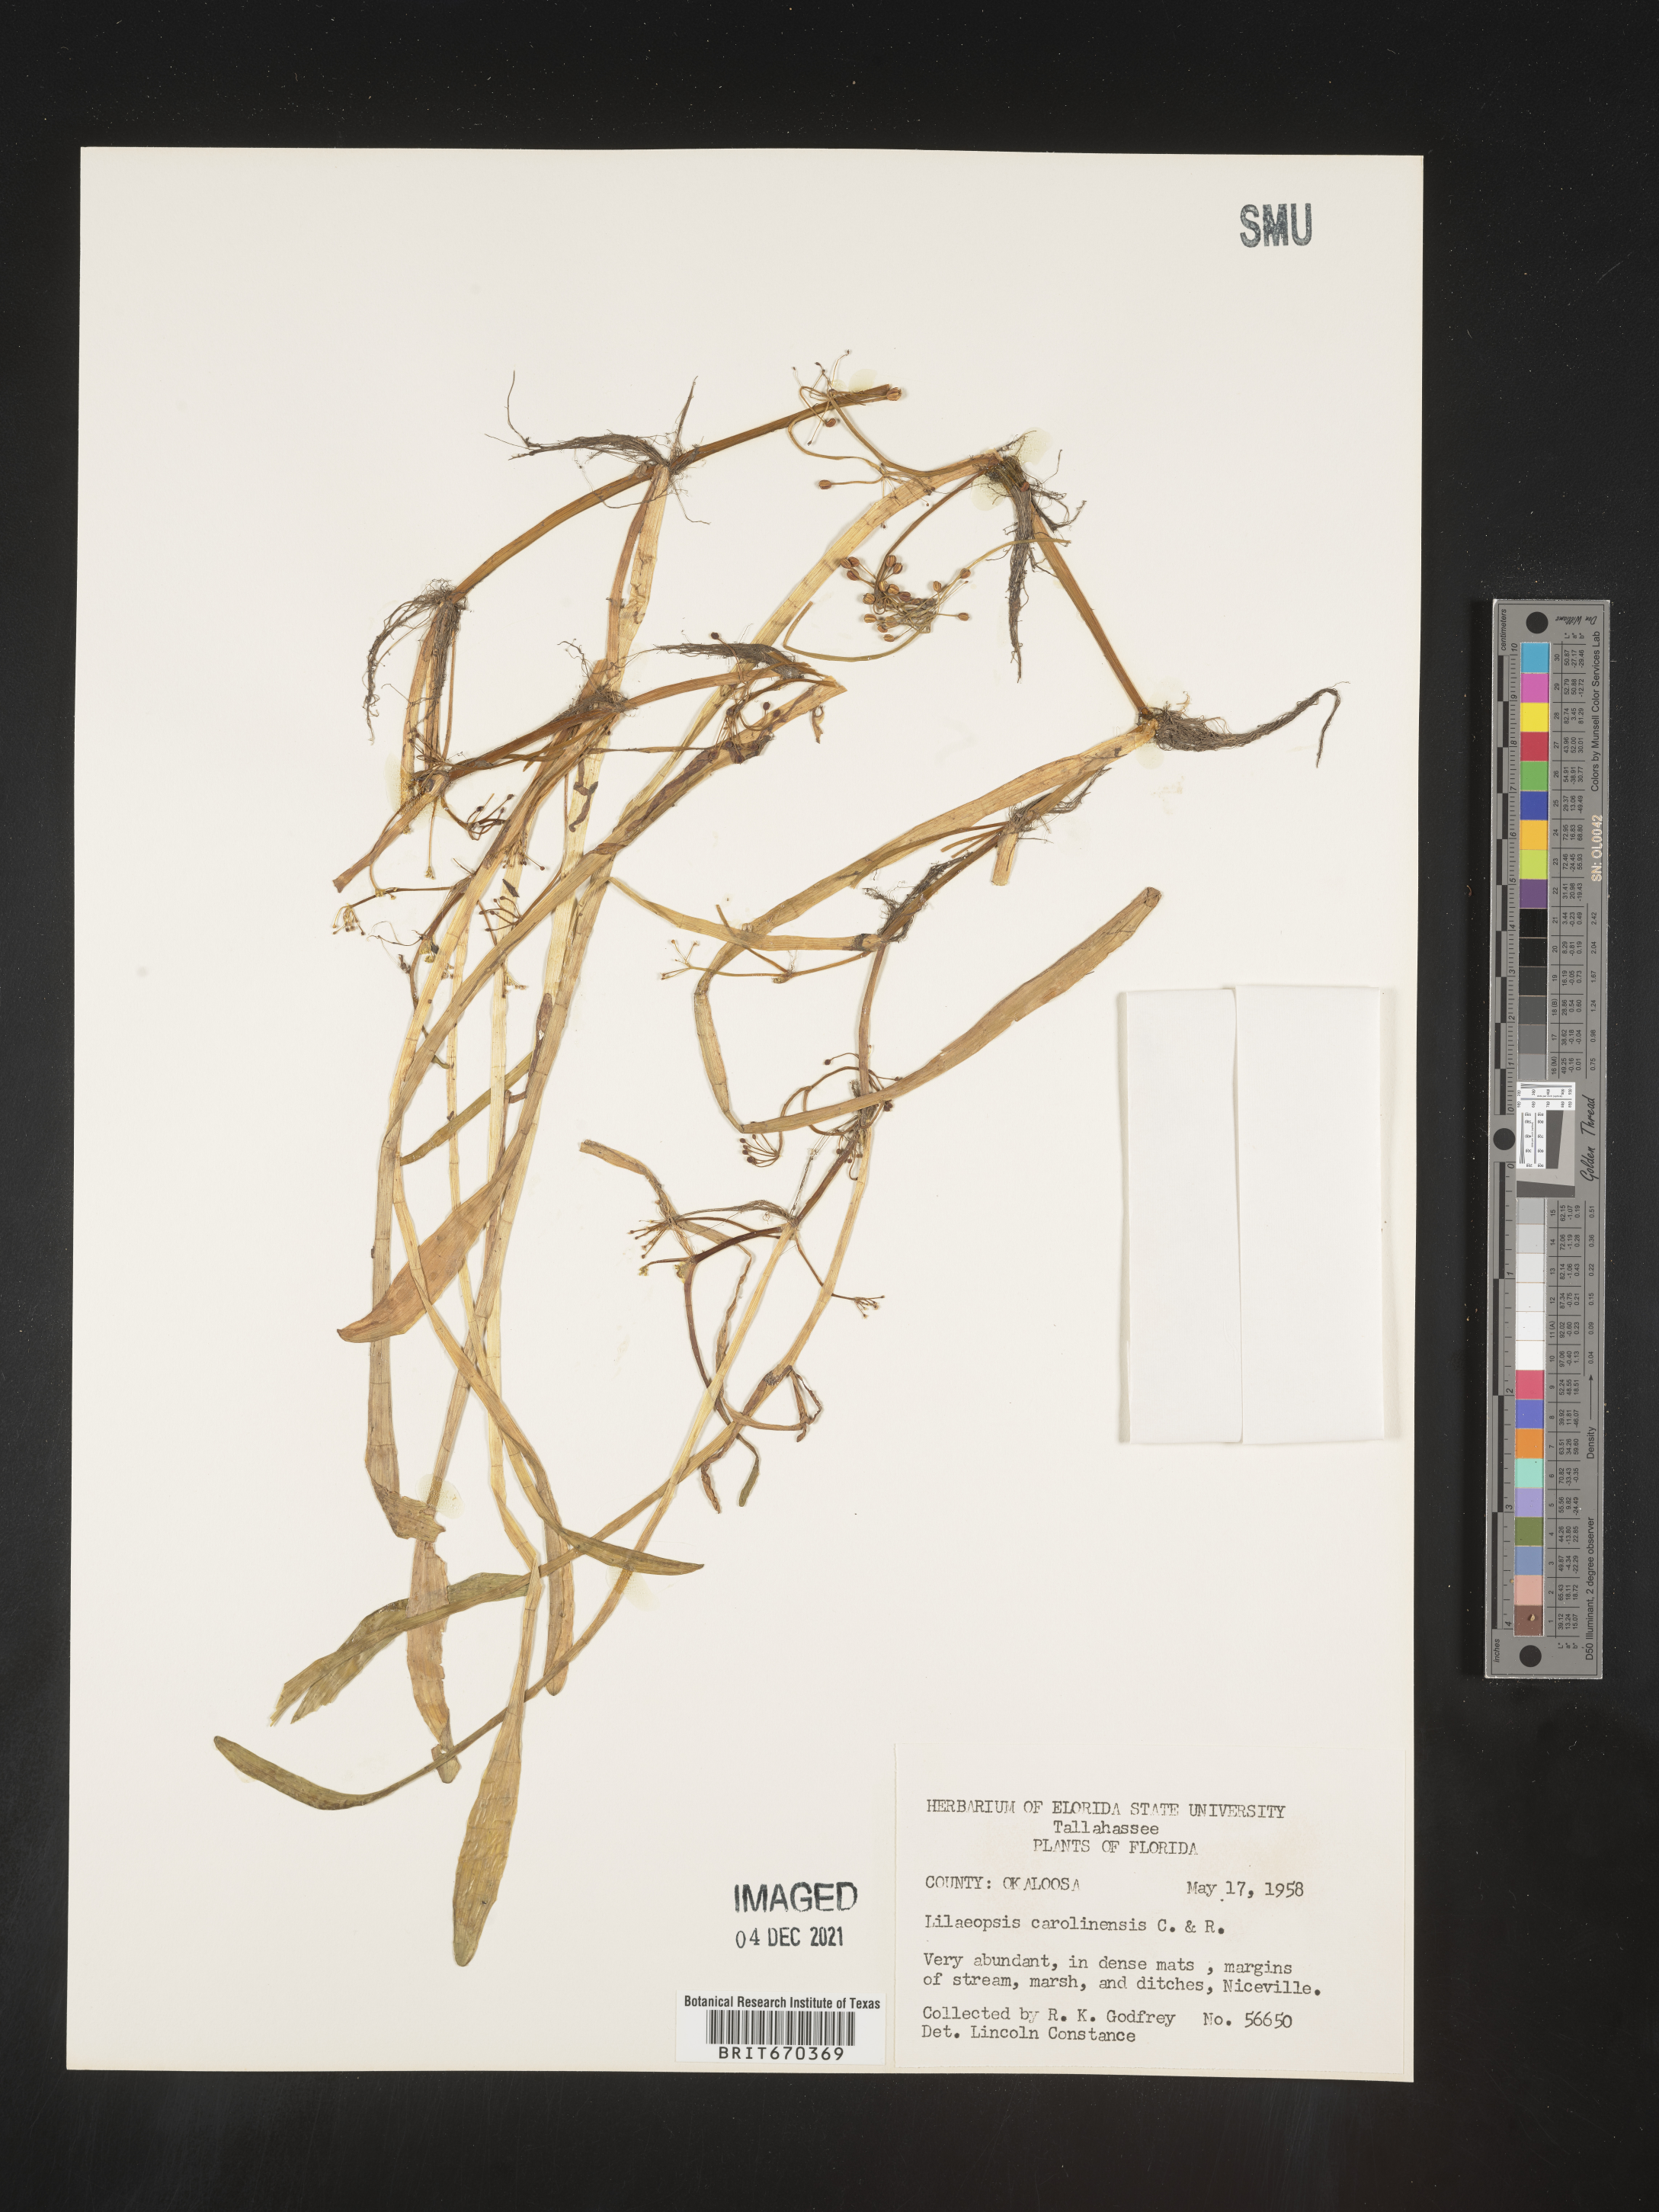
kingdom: Plantae
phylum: Tracheophyta
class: Magnoliopsida
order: Apiales
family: Apiaceae
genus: Lilaeopsis
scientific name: Lilaeopsis
